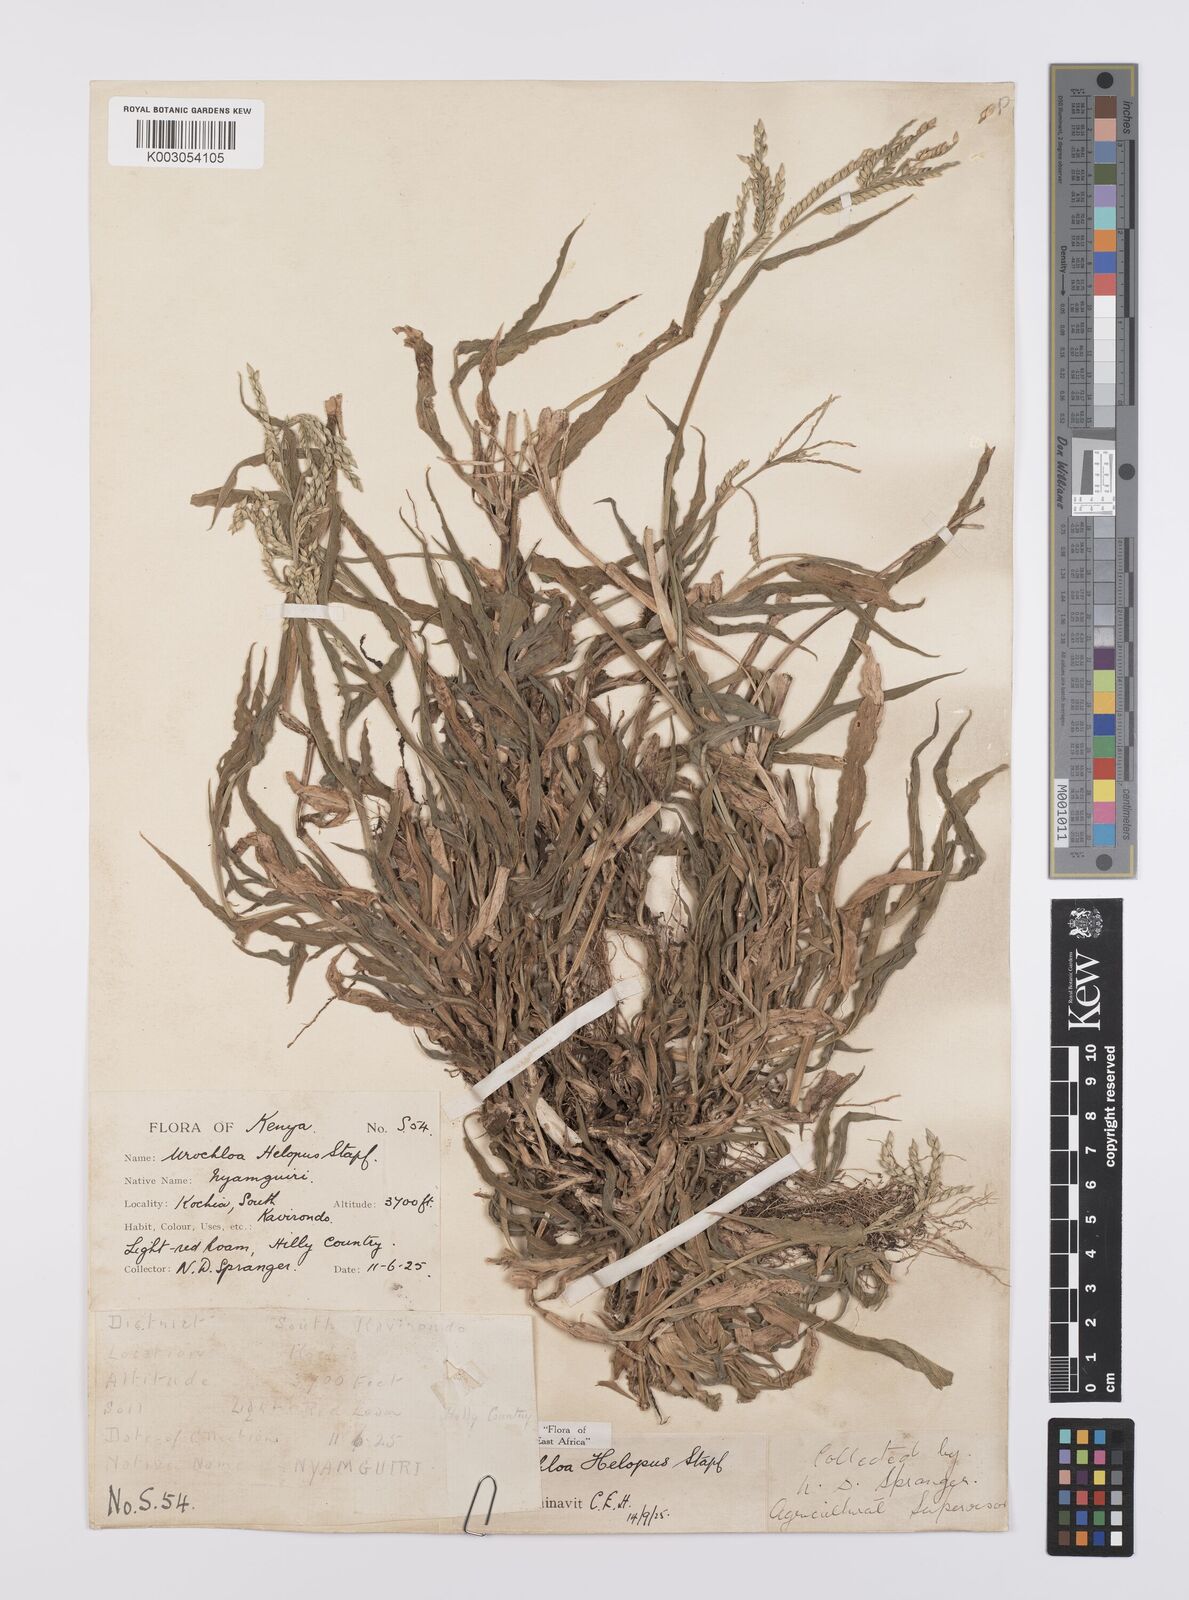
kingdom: Plantae
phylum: Tracheophyta
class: Liliopsida
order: Poales
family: Poaceae
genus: Urochloa
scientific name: Urochloa panicoides
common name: Sharp-flowered signal-grass
